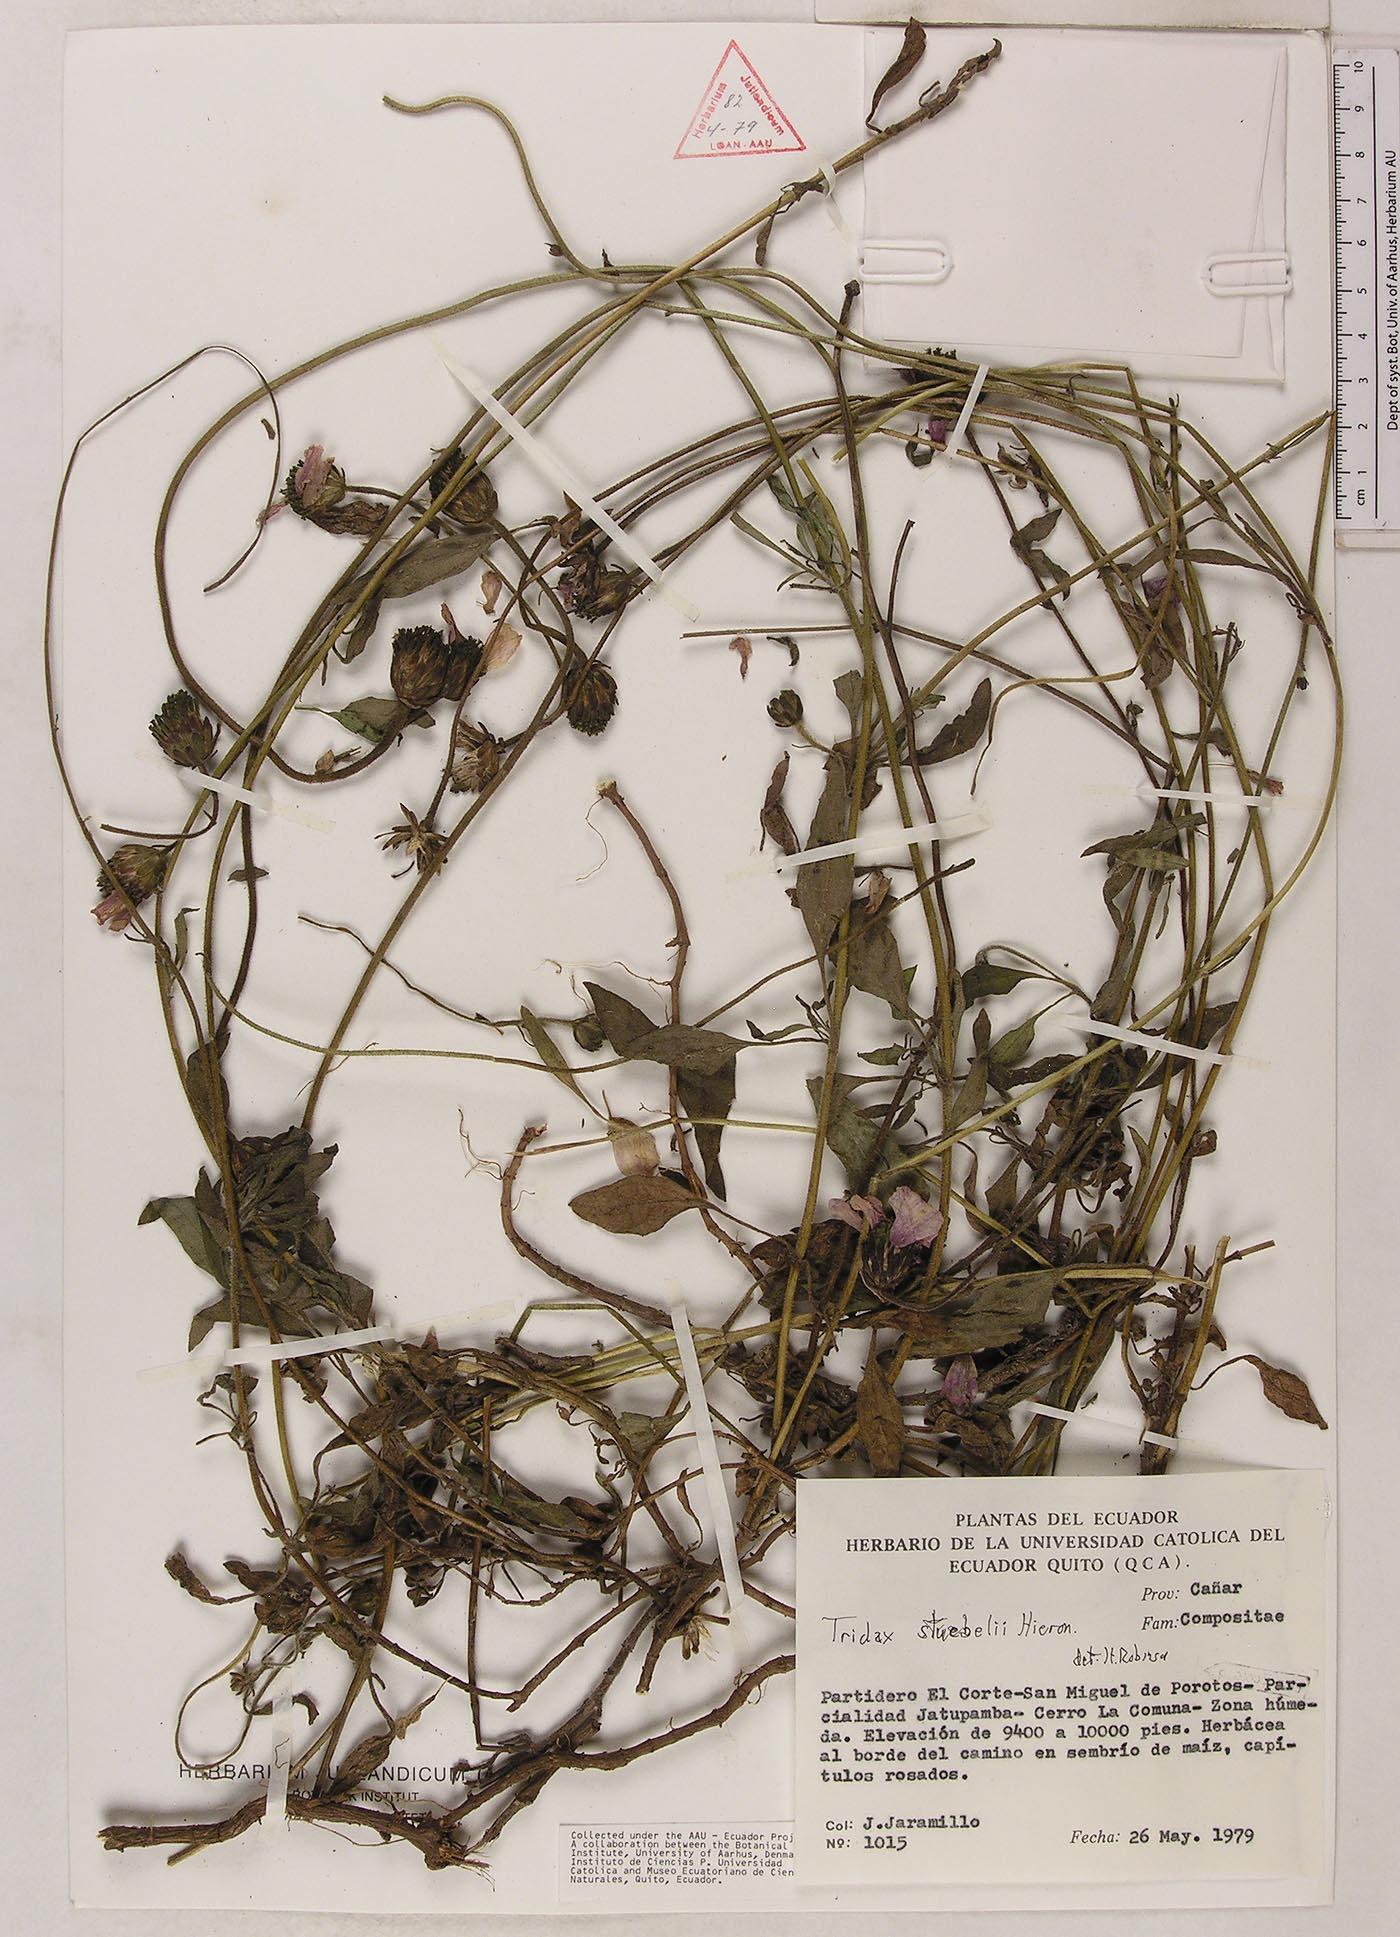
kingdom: Plantae
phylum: Tracheophyta
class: Magnoliopsida
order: Asterales
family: Asteraceae
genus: Tridax
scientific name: Tridax stuebelii
